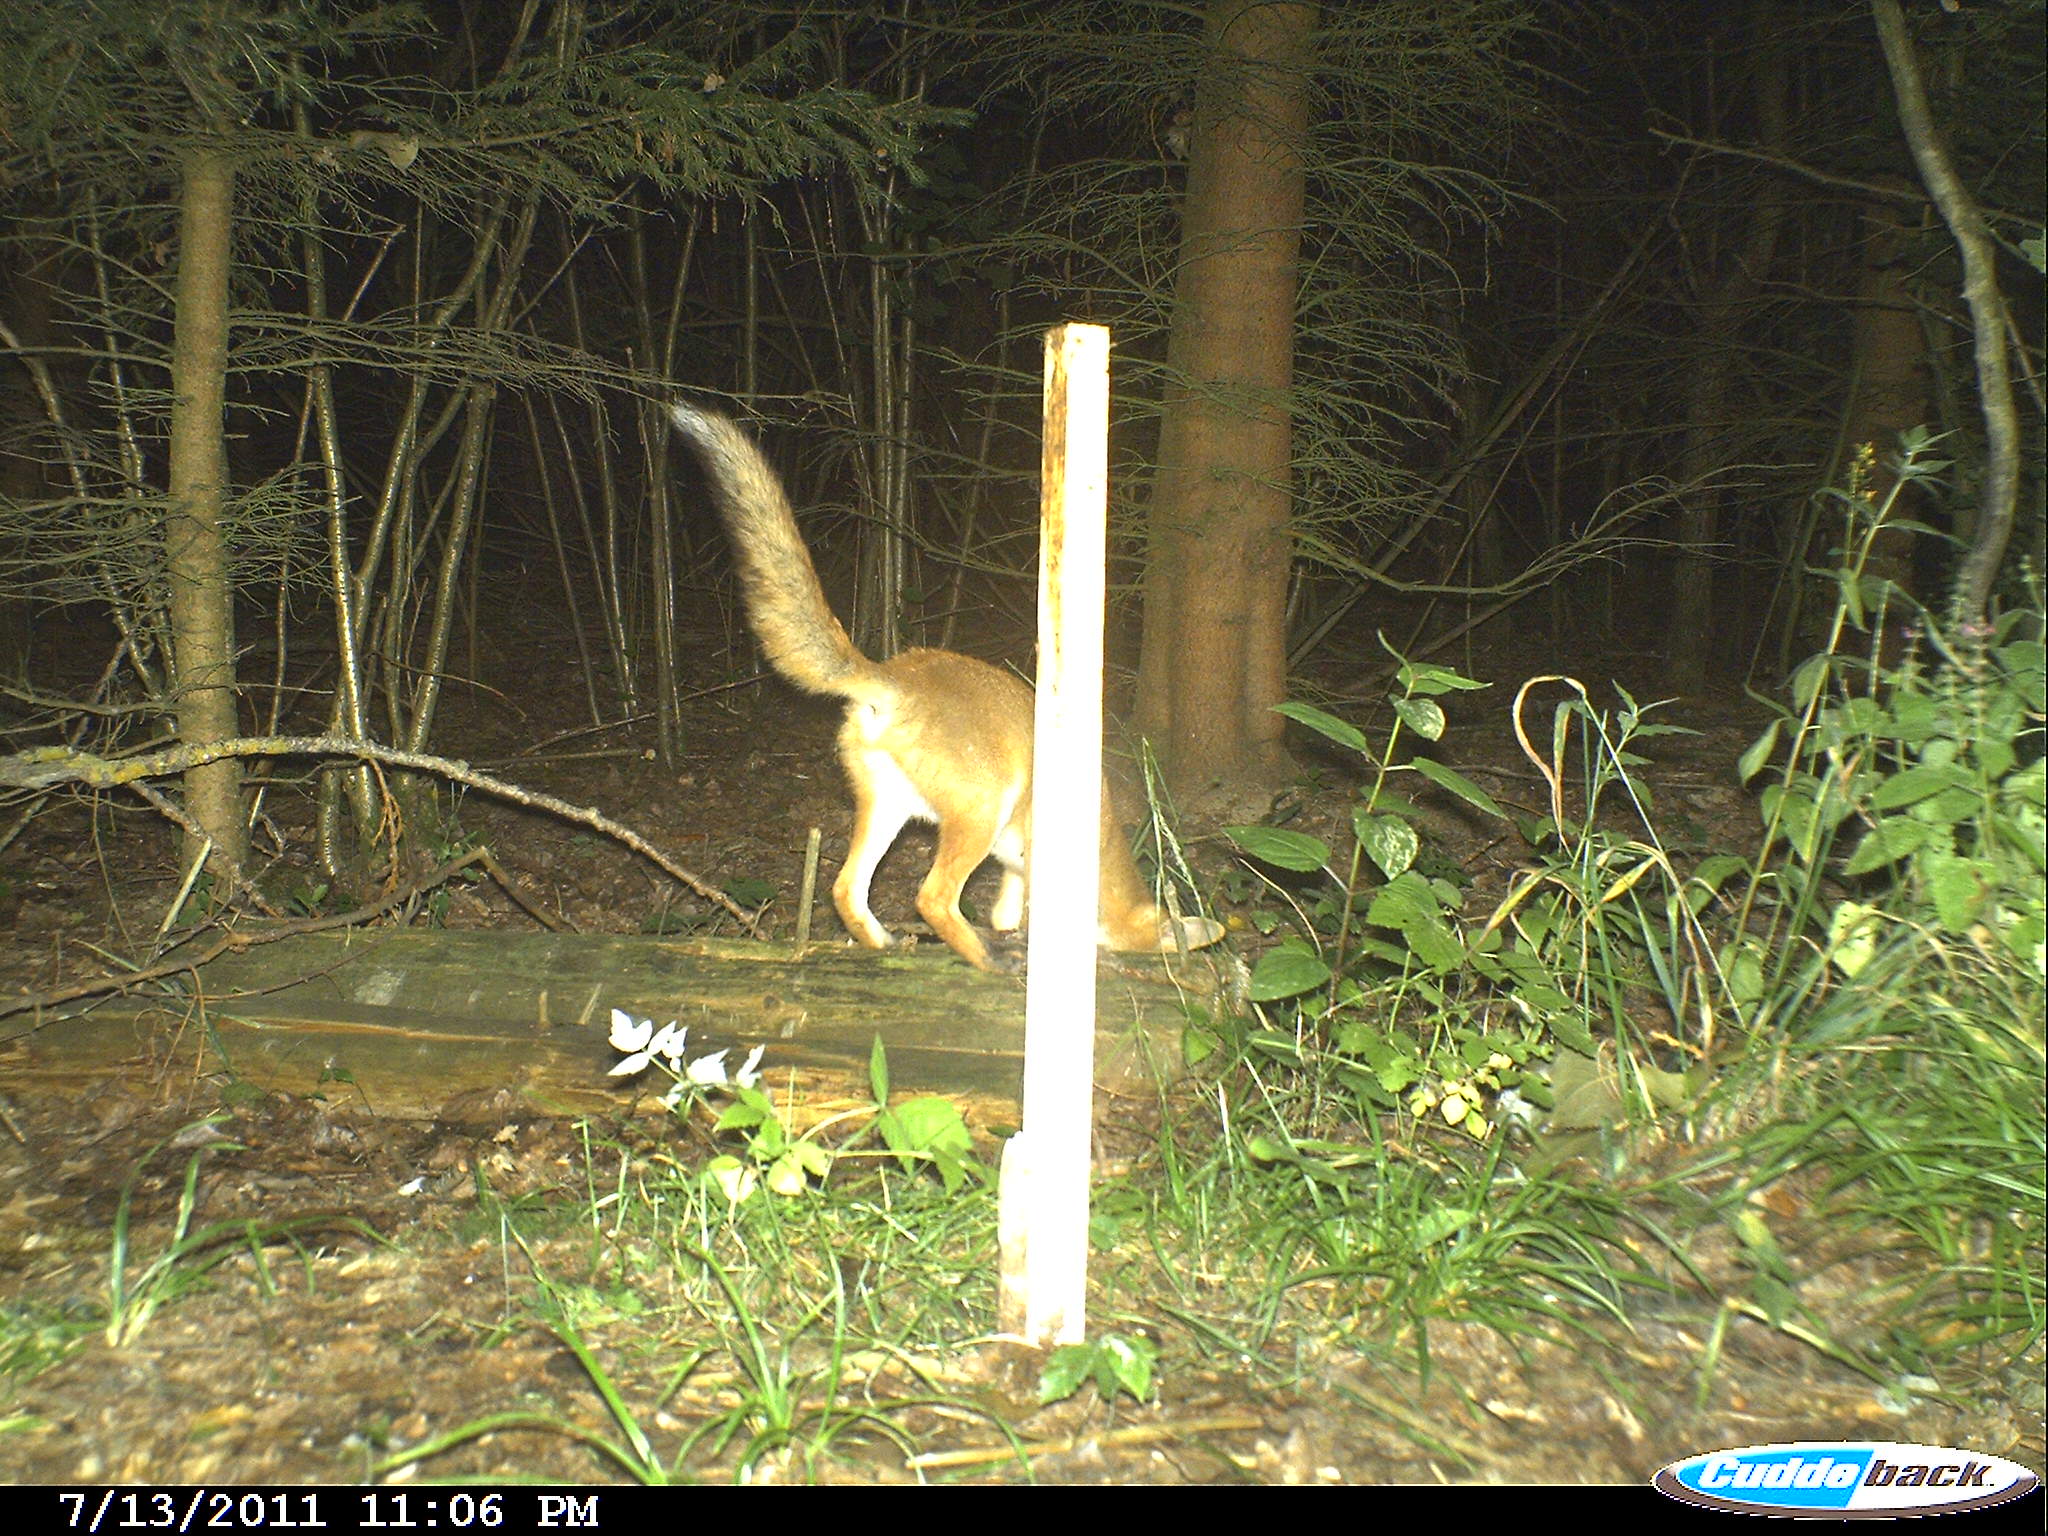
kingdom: Animalia
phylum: Chordata
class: Mammalia
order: Carnivora
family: Canidae
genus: Vulpes
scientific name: Vulpes vulpes
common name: Red fox
